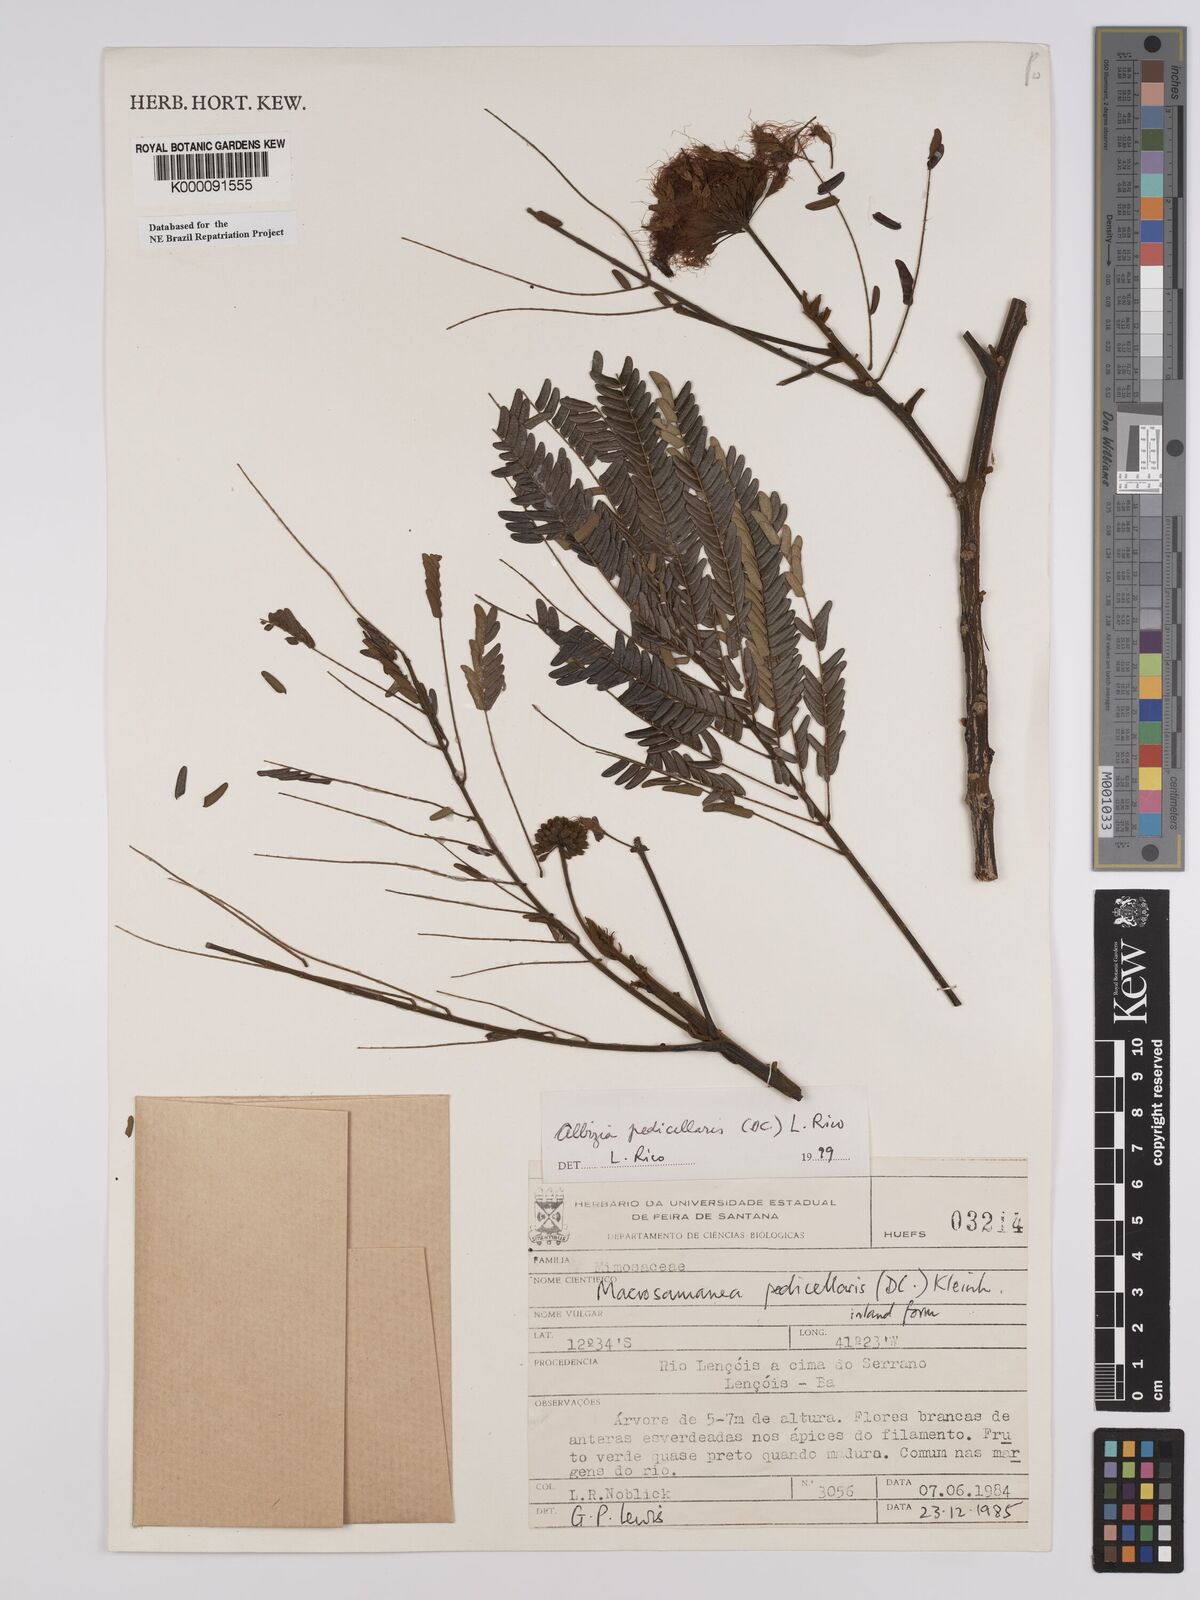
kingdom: Plantae
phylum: Tracheophyta
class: Magnoliopsida
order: Fabales
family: Fabaceae
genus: Balizia
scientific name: Balizia pedicellaris
